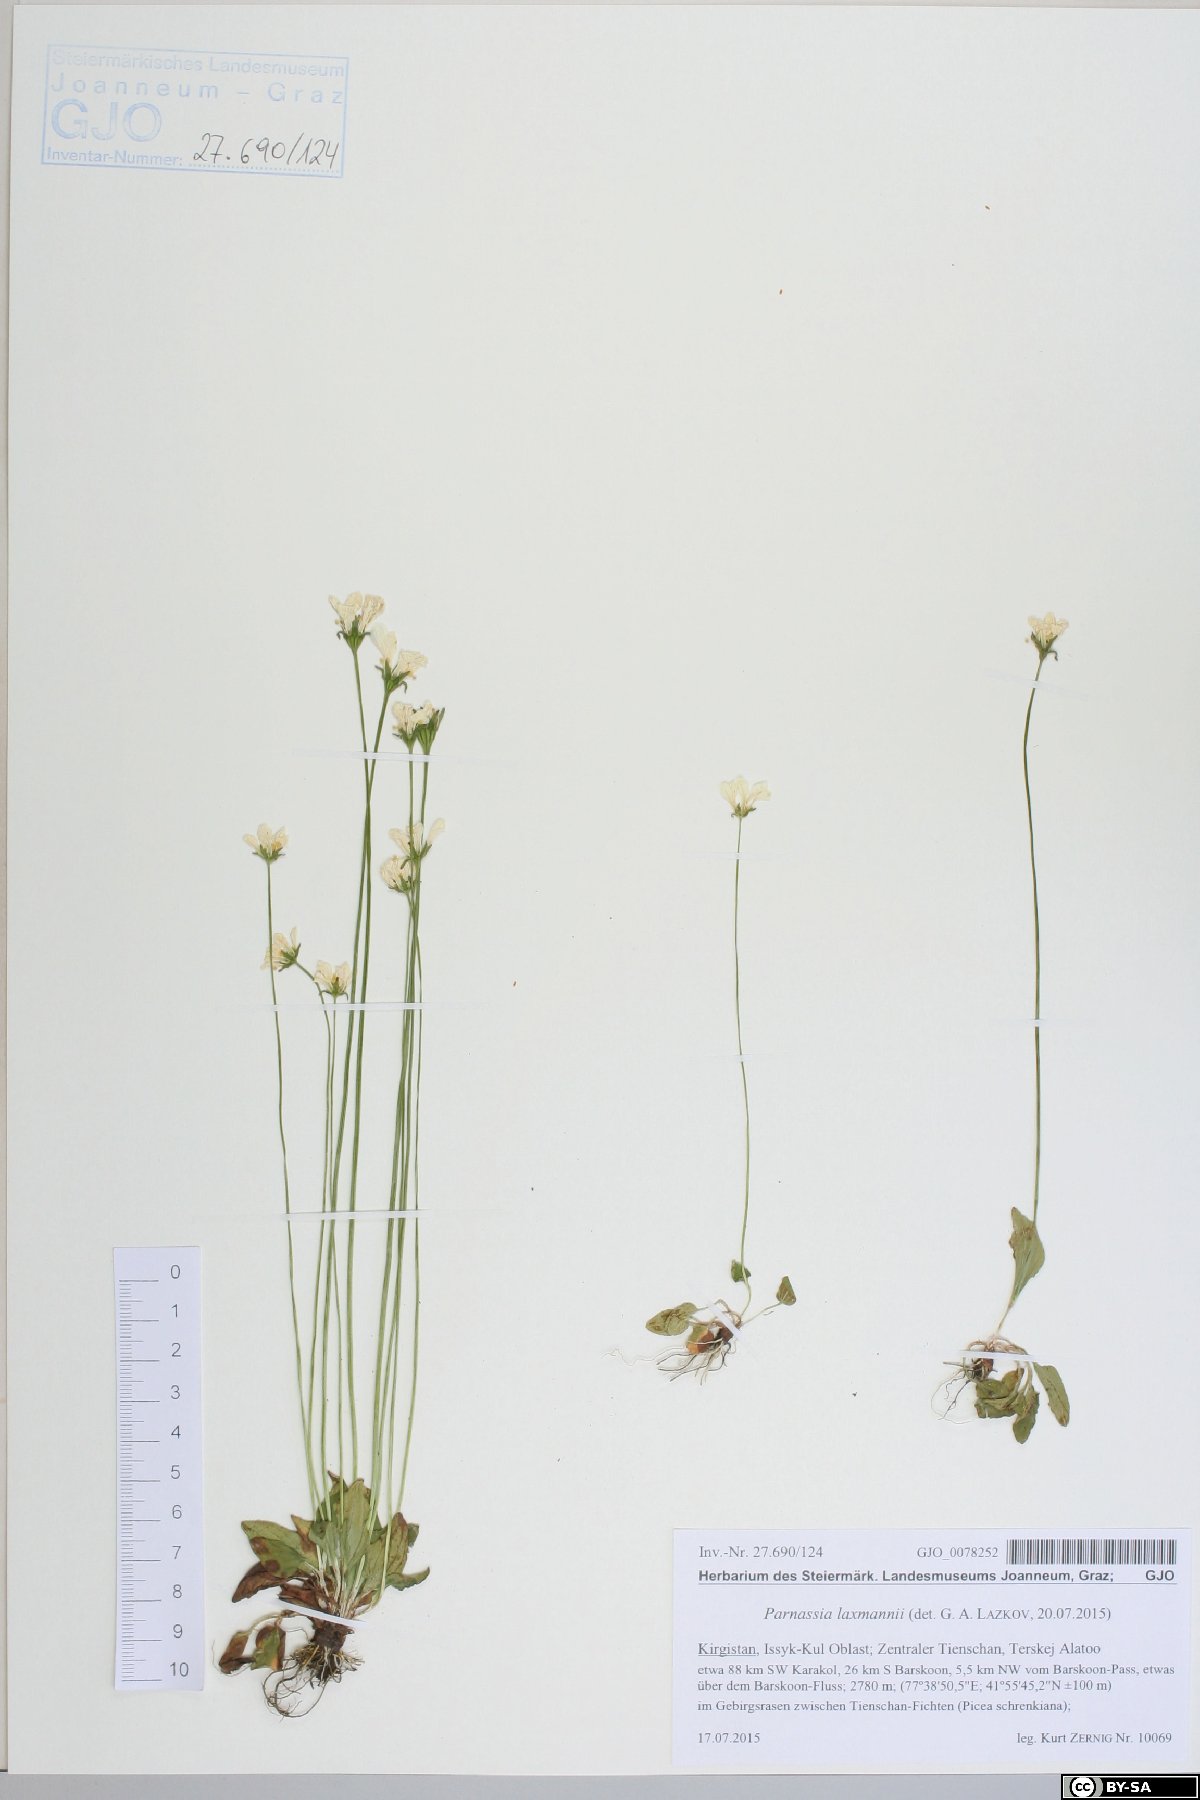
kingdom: Plantae
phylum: Tracheophyta
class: Magnoliopsida
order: Celastrales
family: Parnassiaceae
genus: Parnassia
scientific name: Parnassia laxmannii
